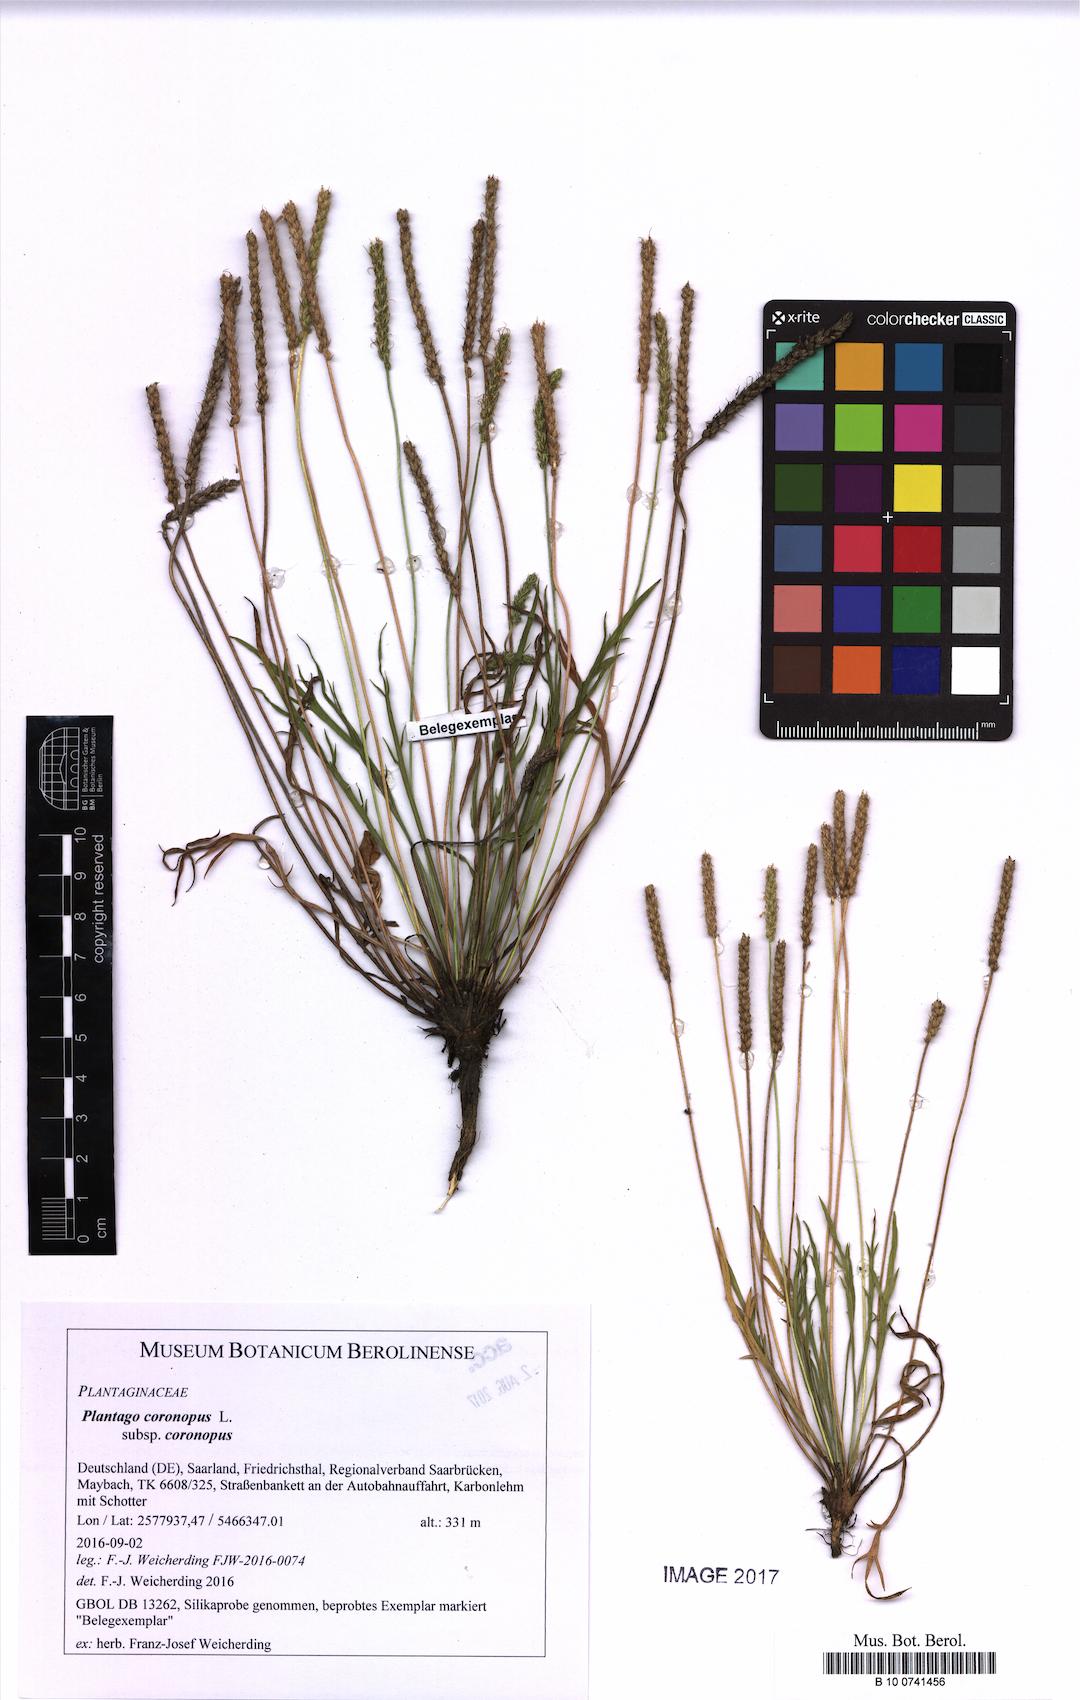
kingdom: Plantae
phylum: Tracheophyta
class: Magnoliopsida
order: Lamiales
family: Plantaginaceae
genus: Plantago
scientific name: Plantago coronopus
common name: Buck's-horn plantain
